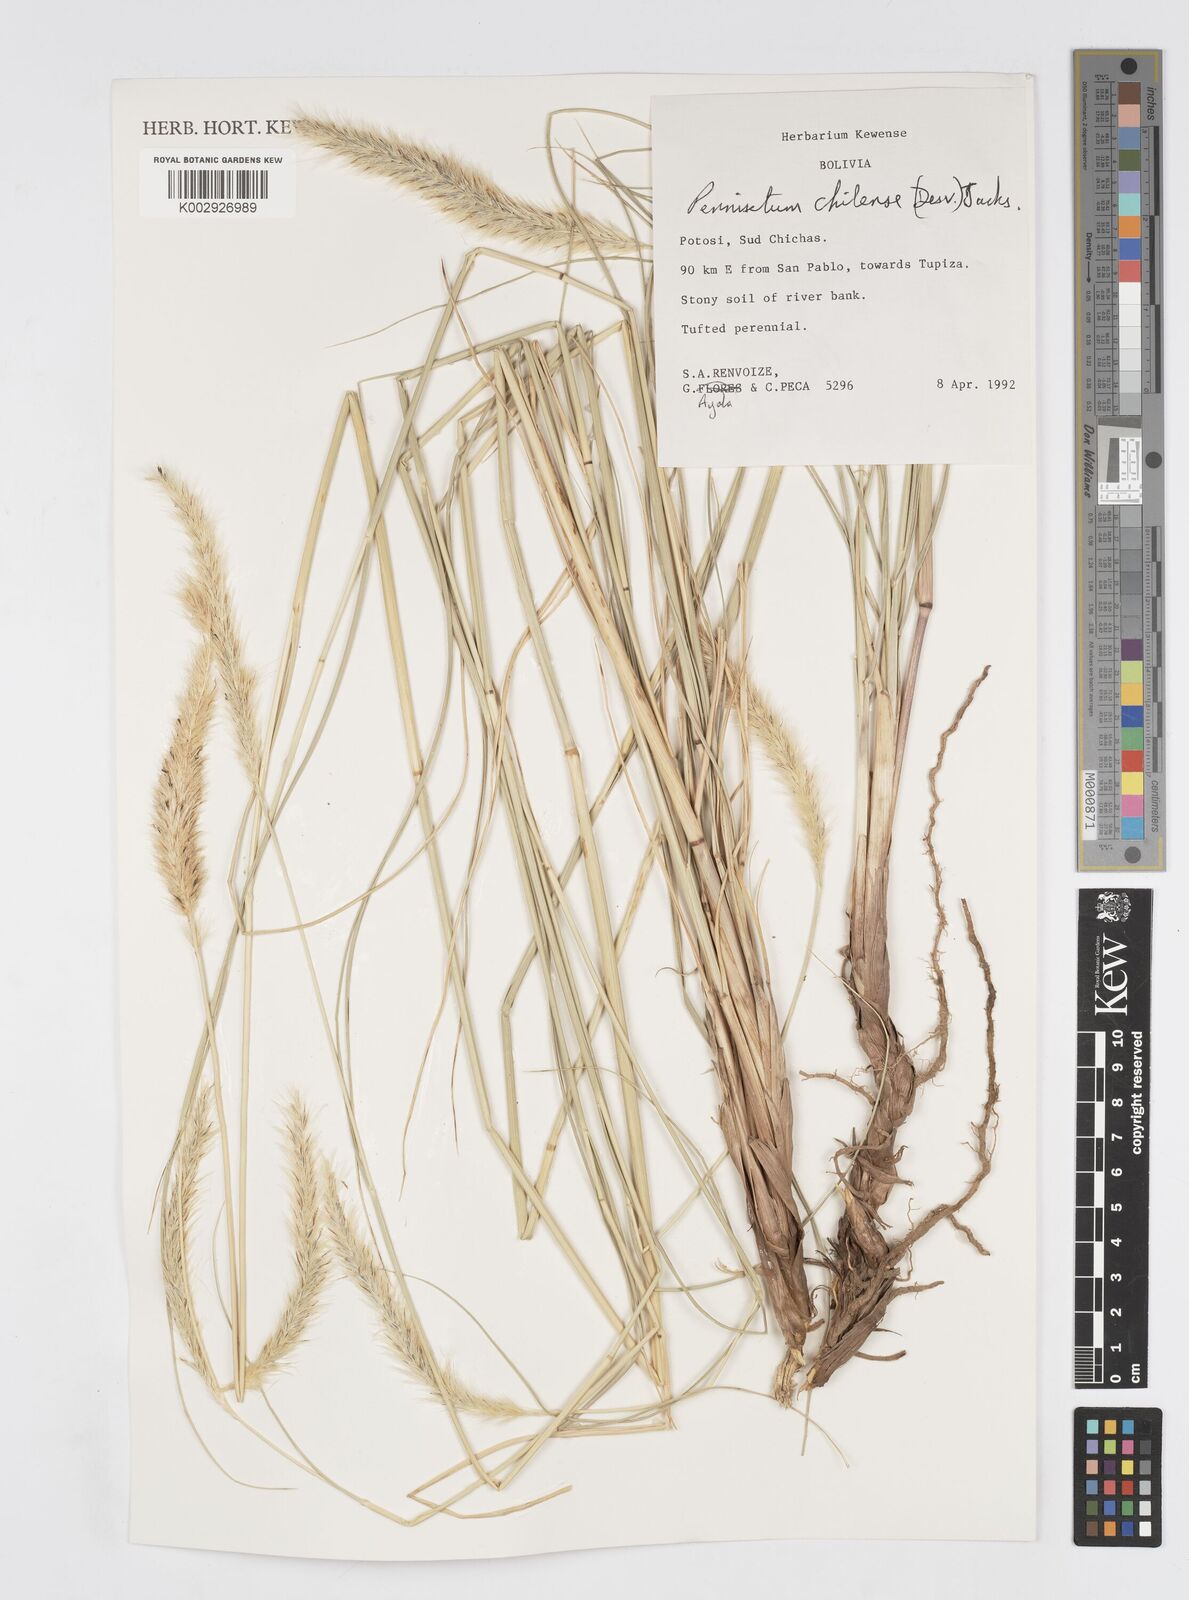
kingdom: Plantae
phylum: Tracheophyta
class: Liliopsida
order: Poales
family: Poaceae
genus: Cenchrus
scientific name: Cenchrus chilensis
